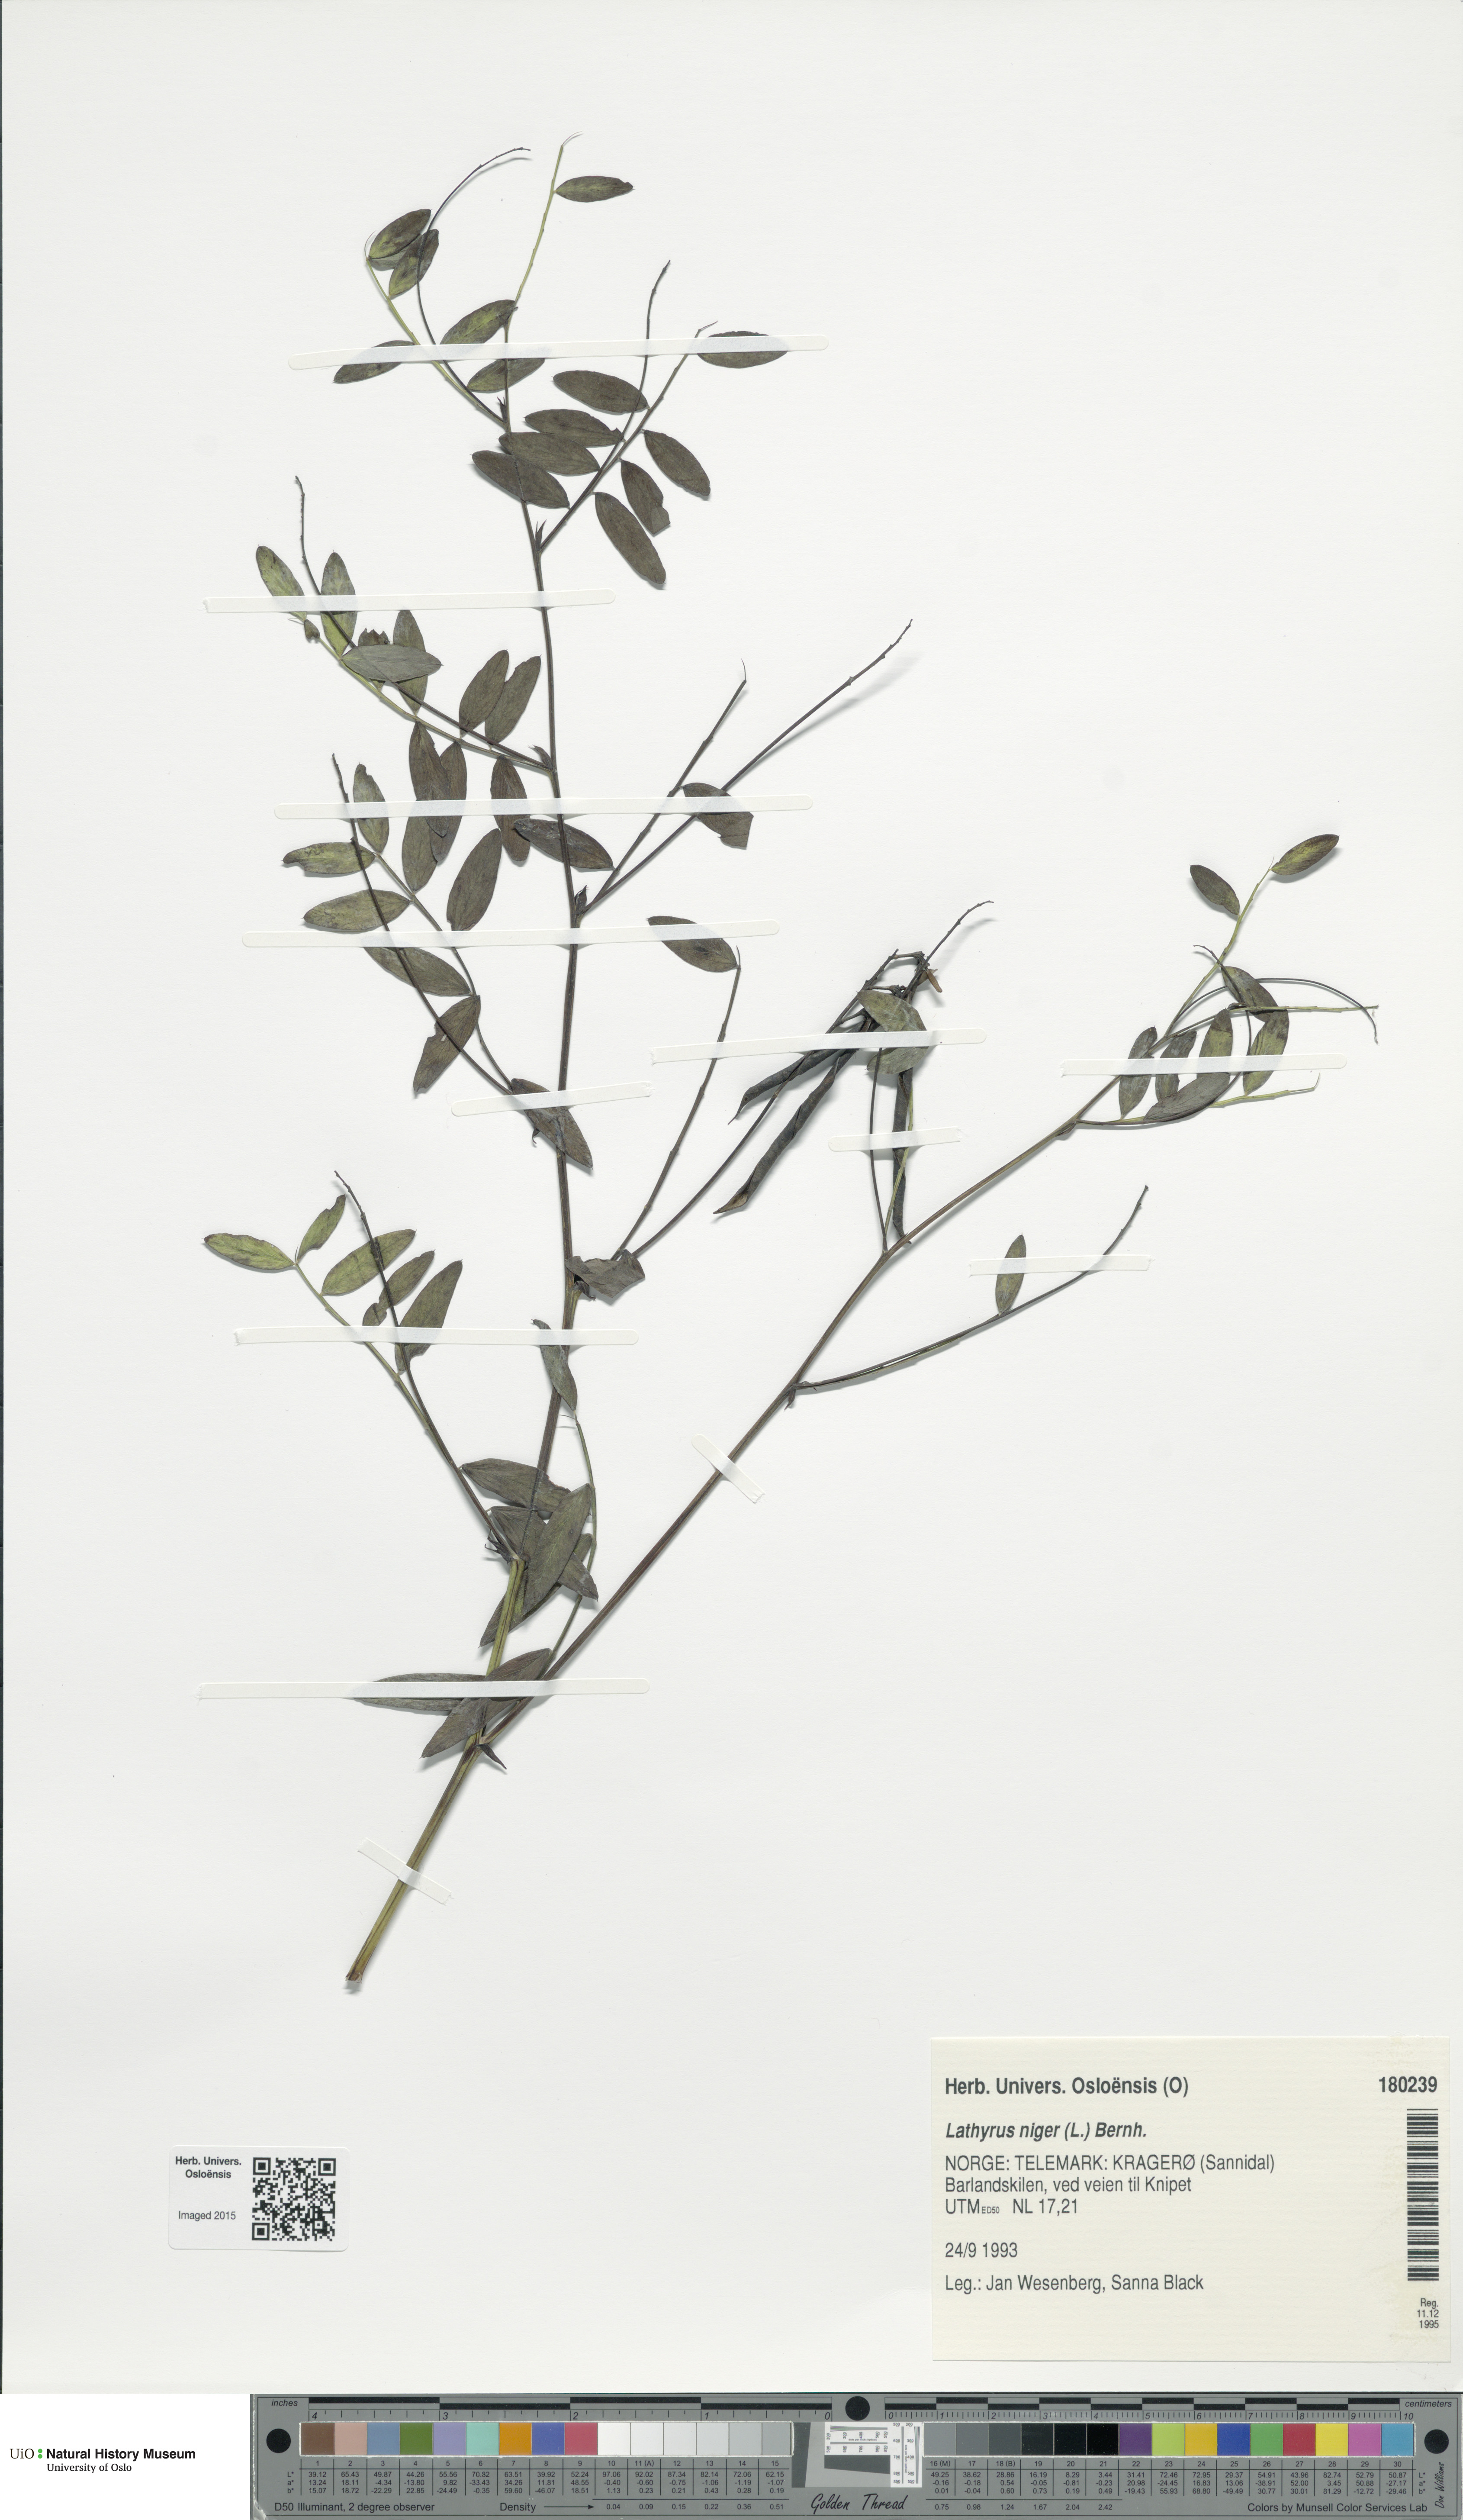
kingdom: Plantae
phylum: Tracheophyta
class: Magnoliopsida
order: Fabales
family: Fabaceae
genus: Lathyrus
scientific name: Lathyrus niger
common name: Black pea
